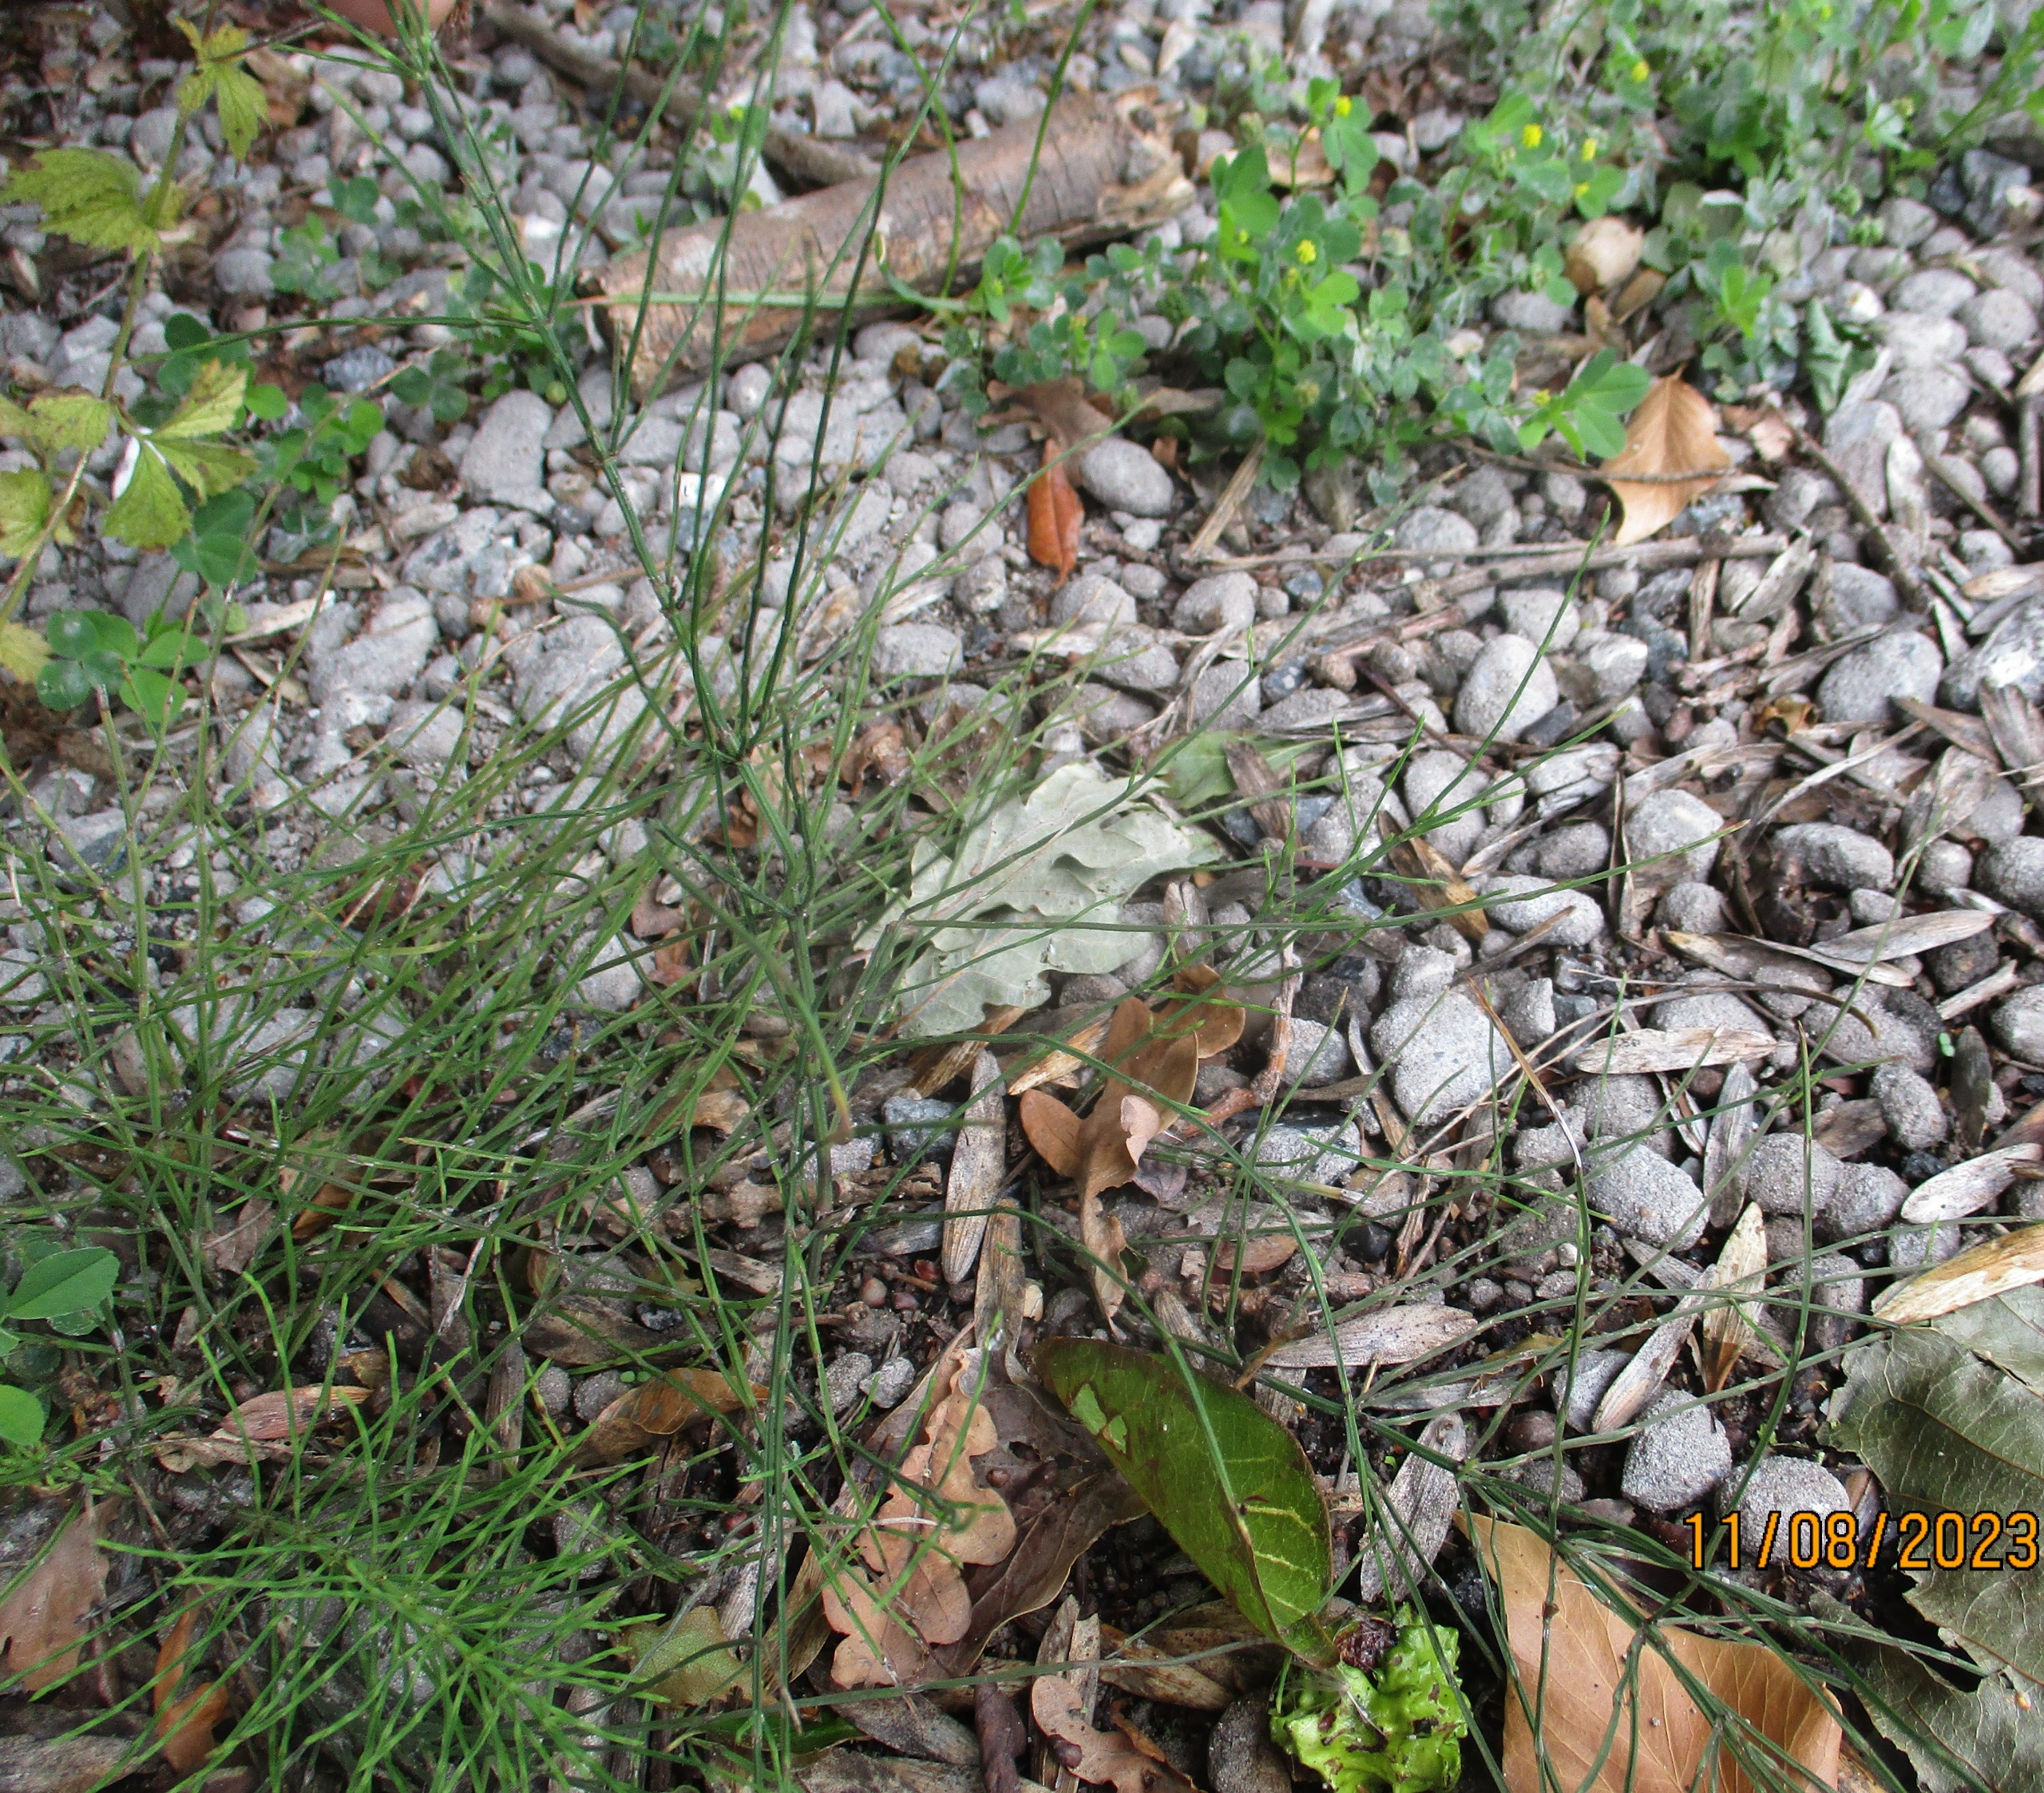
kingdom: Plantae
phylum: Tracheophyta
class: Polypodiopsida
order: Equisetales
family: Equisetaceae
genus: Equisetum
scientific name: Equisetum arvense
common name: Ager-padderok
